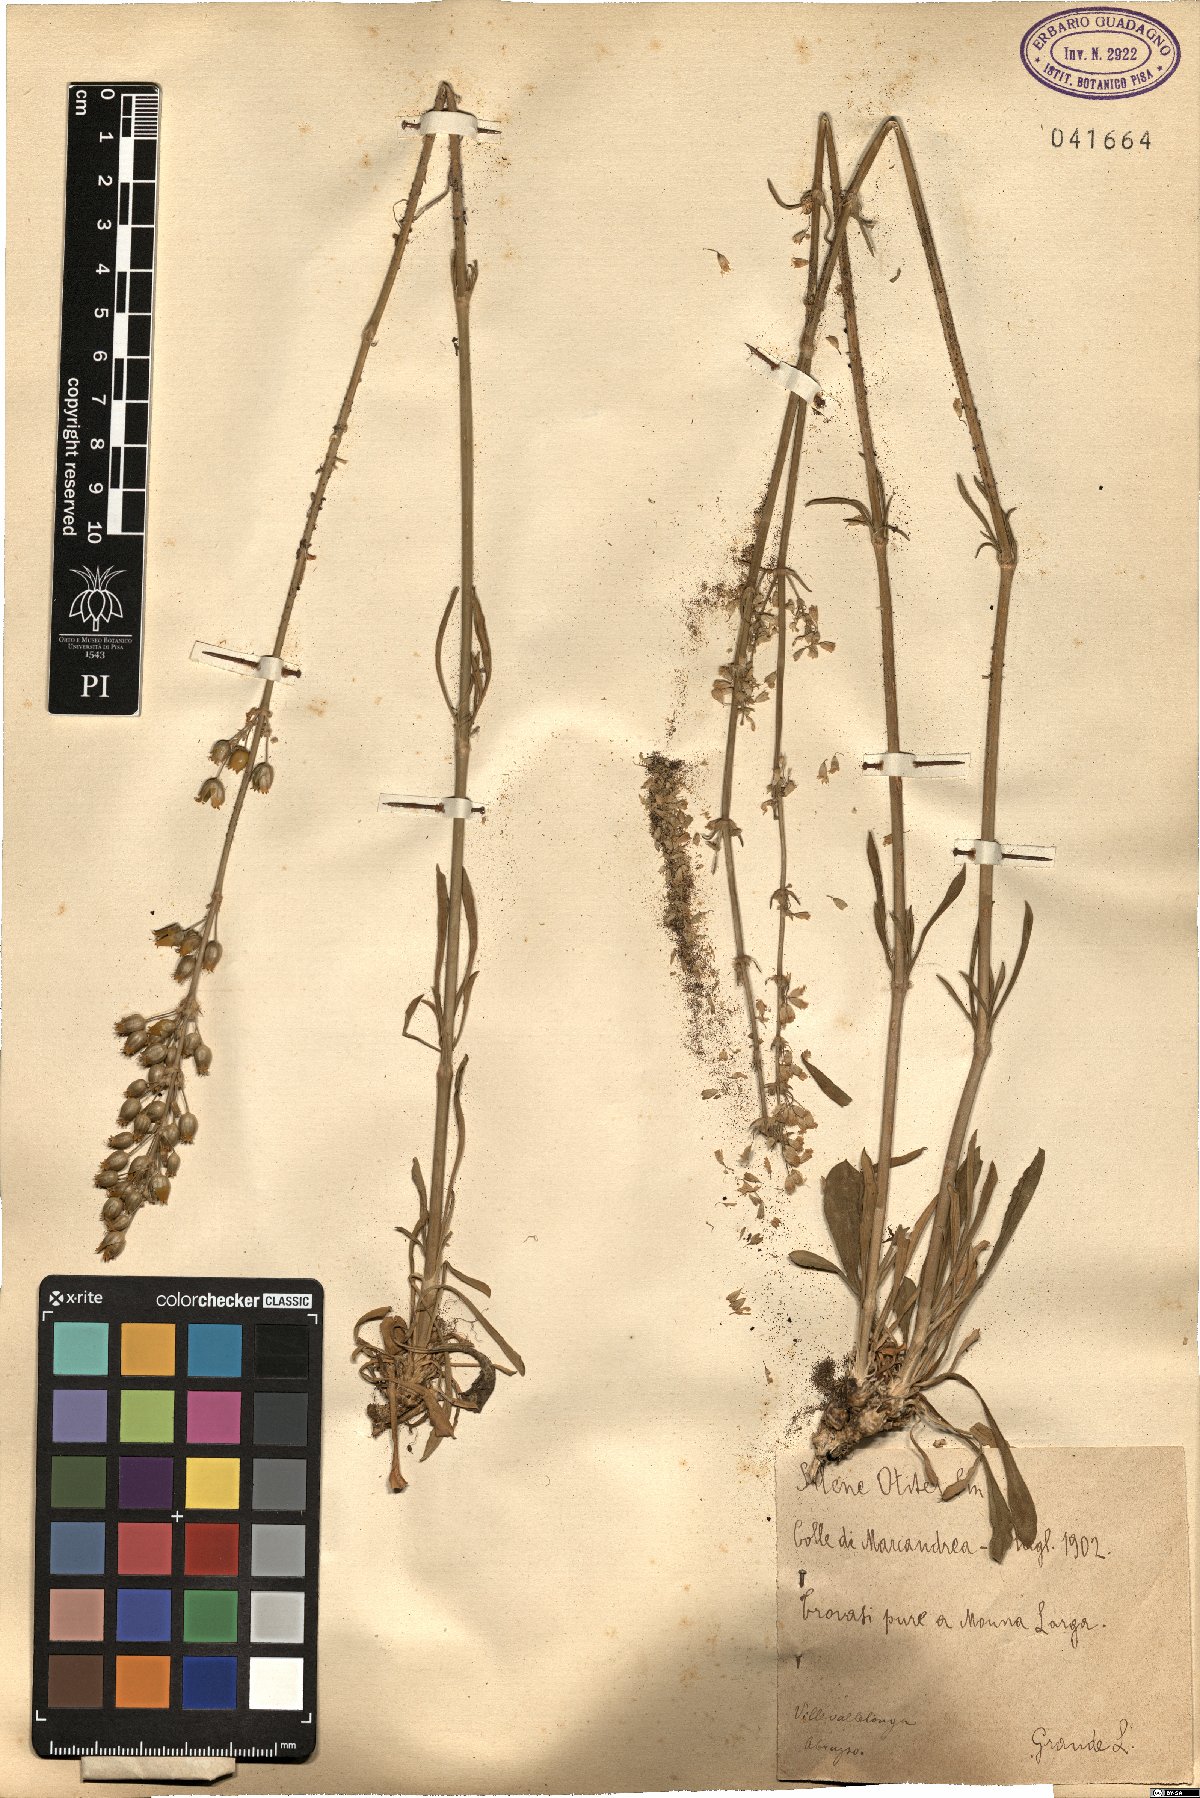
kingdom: Plantae
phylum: Tracheophyta
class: Magnoliopsida
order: Caryophyllales
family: Caryophyllaceae
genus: Silene
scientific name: Silene otites
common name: Spanish catchfly
